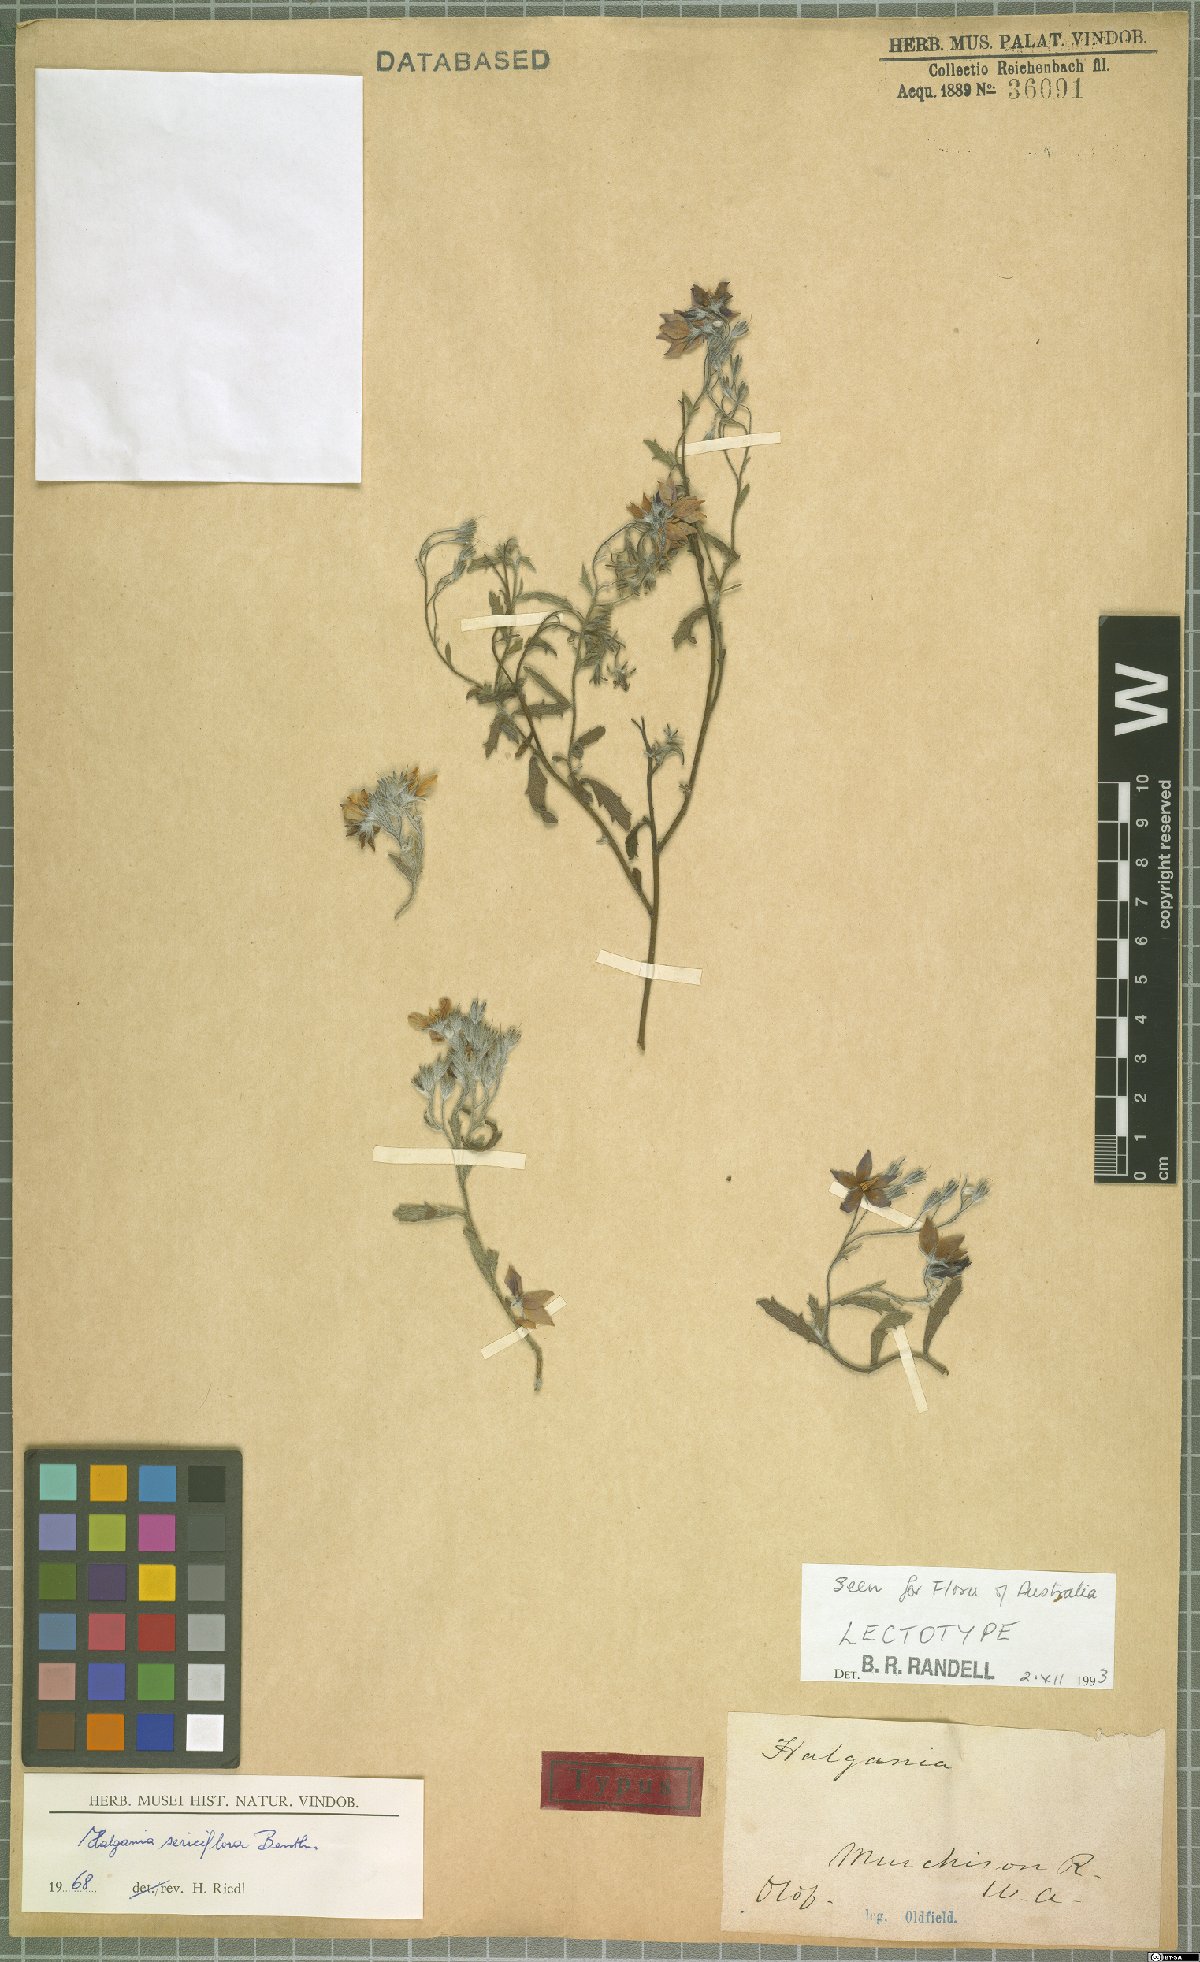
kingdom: Plantae
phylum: Tracheophyta
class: Magnoliopsida
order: Boraginales
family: Ehretiaceae
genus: Halgania
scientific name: Halgania sericiflora
